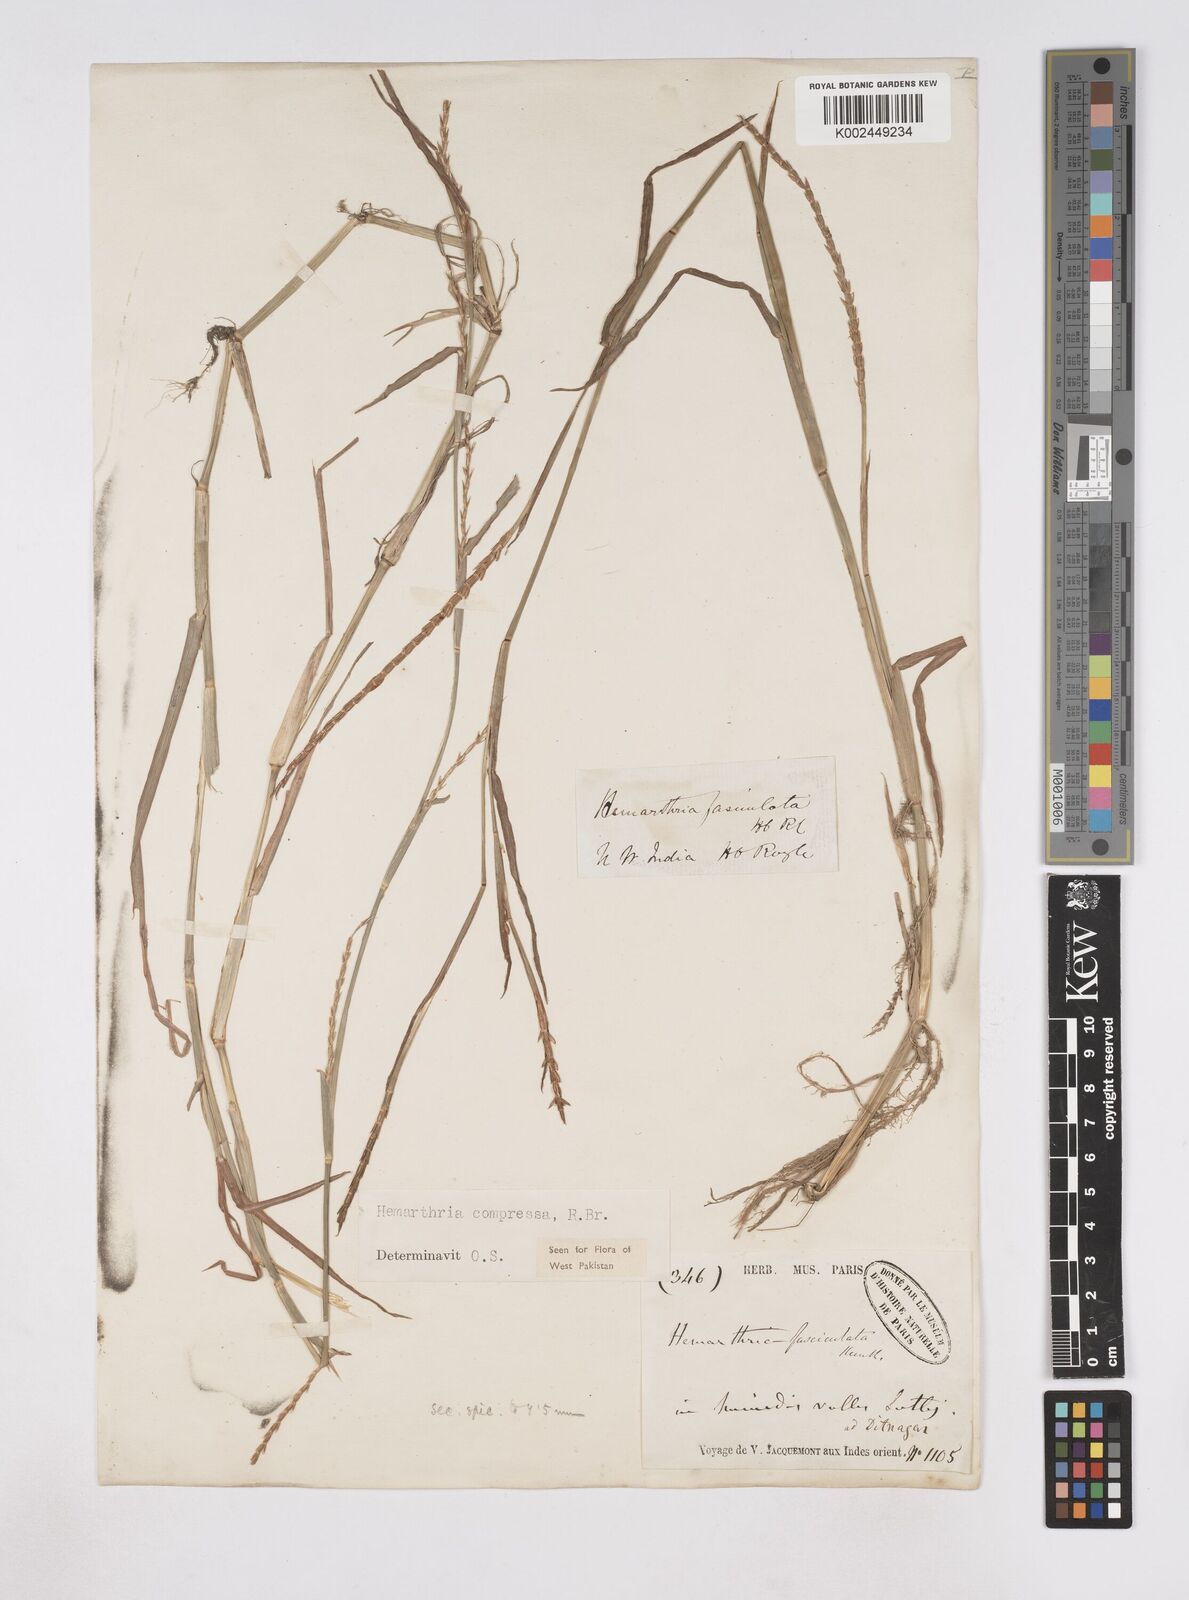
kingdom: Plantae
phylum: Tracheophyta
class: Liliopsida
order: Poales
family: Poaceae
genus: Hemarthria
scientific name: Hemarthria compressa
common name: Whip grass
